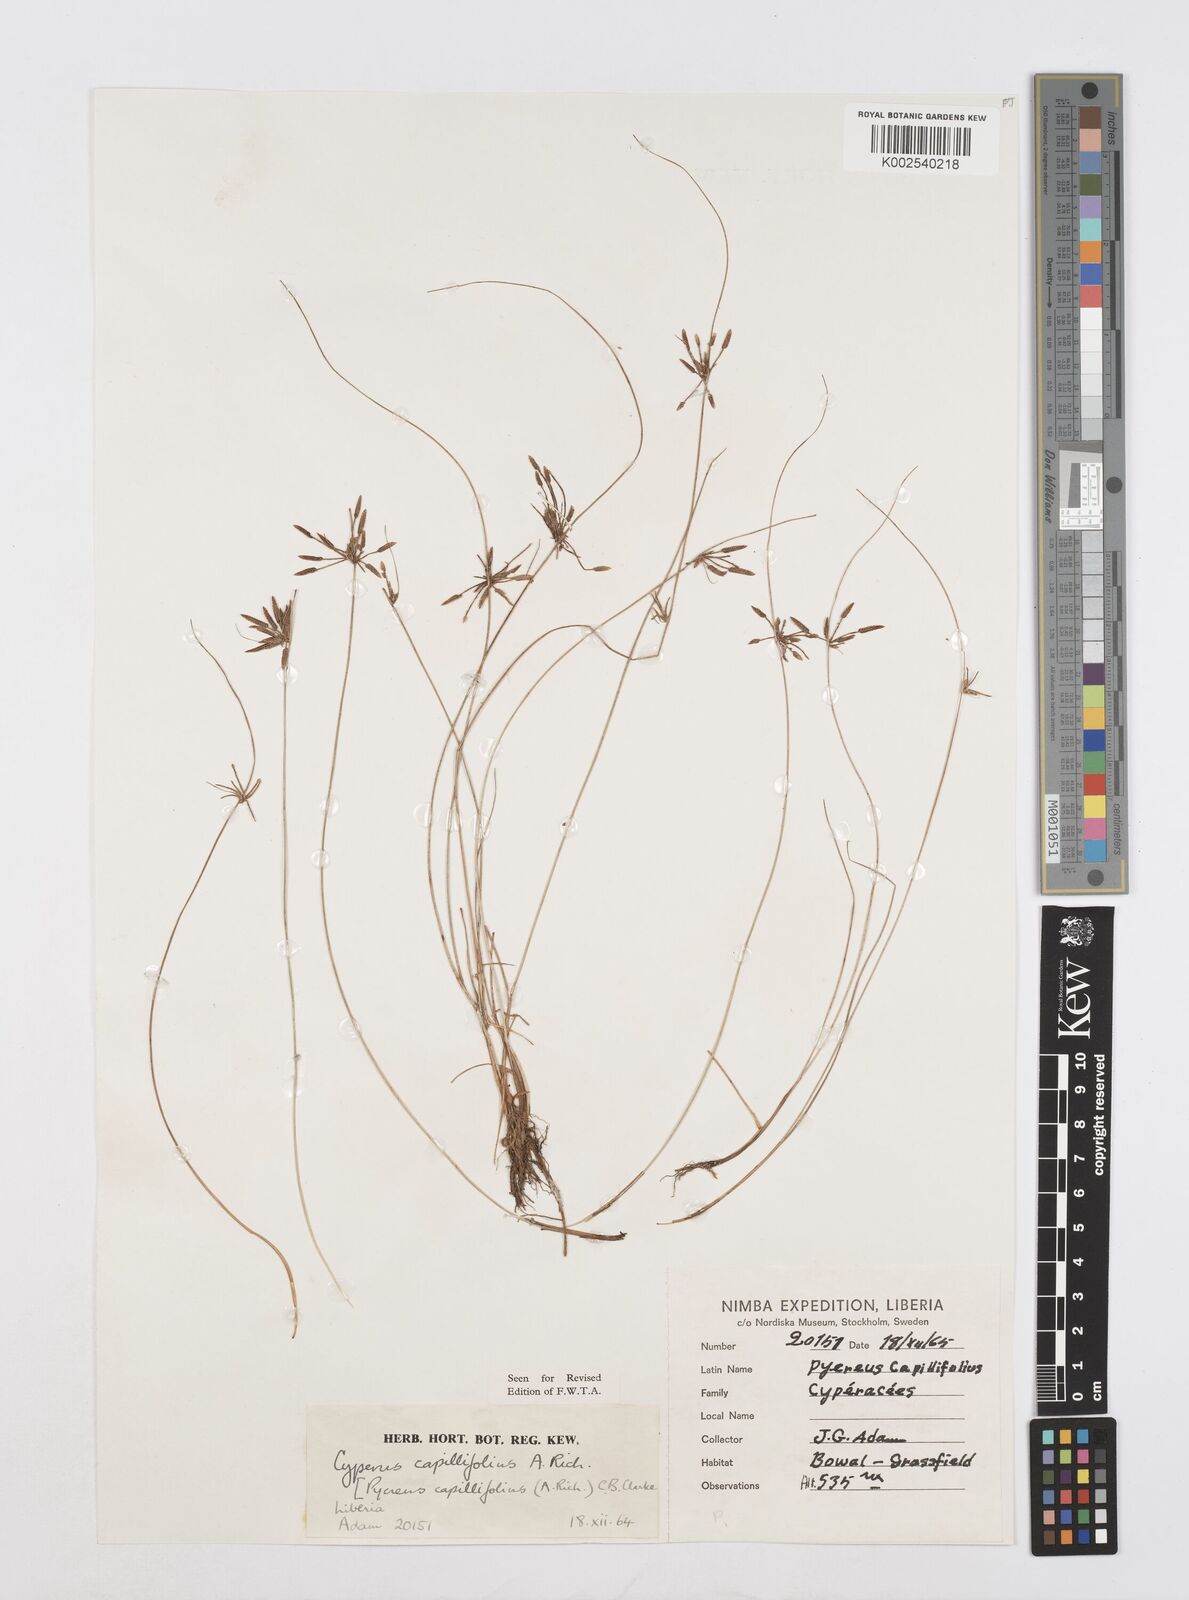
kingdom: Plantae
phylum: Tracheophyta
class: Liliopsida
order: Poales
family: Cyperaceae
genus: Cyperus
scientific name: Cyperus capillifolius
